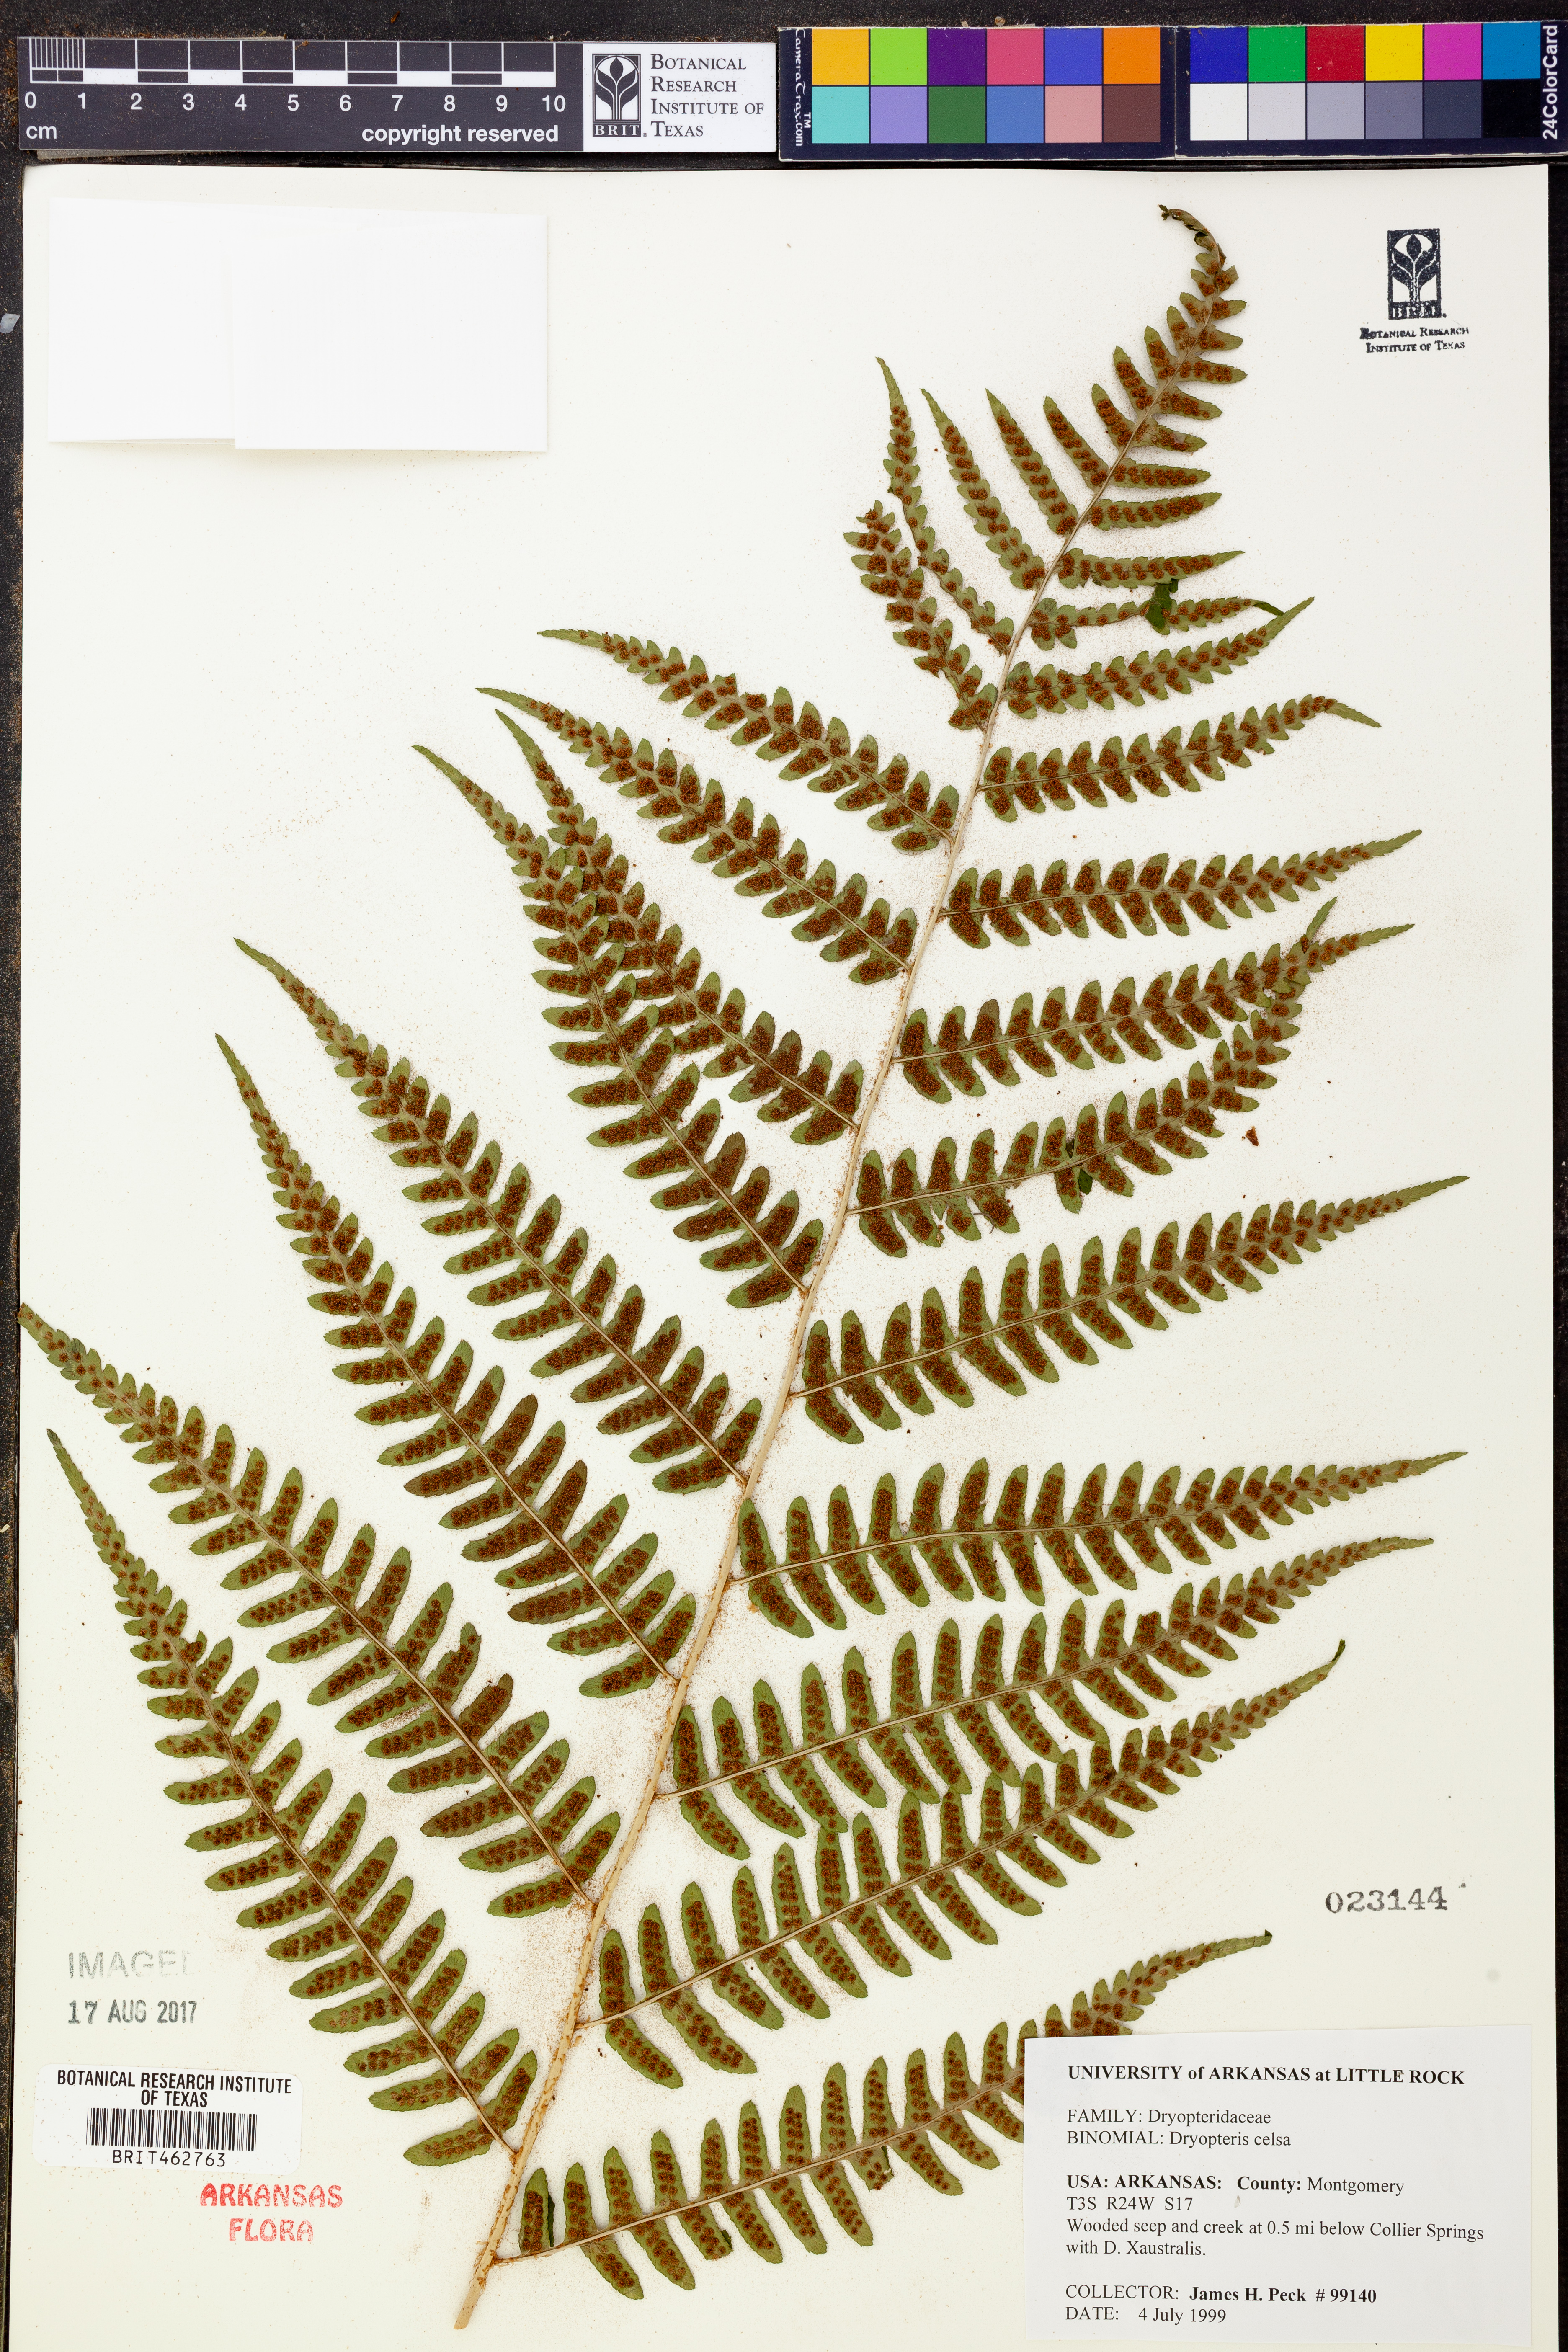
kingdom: Plantae
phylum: Tracheophyta
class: Polypodiopsida
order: Polypodiales
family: Dryopteridaceae
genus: Dryopteris
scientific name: Dryopteris celsa
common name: Log fern
